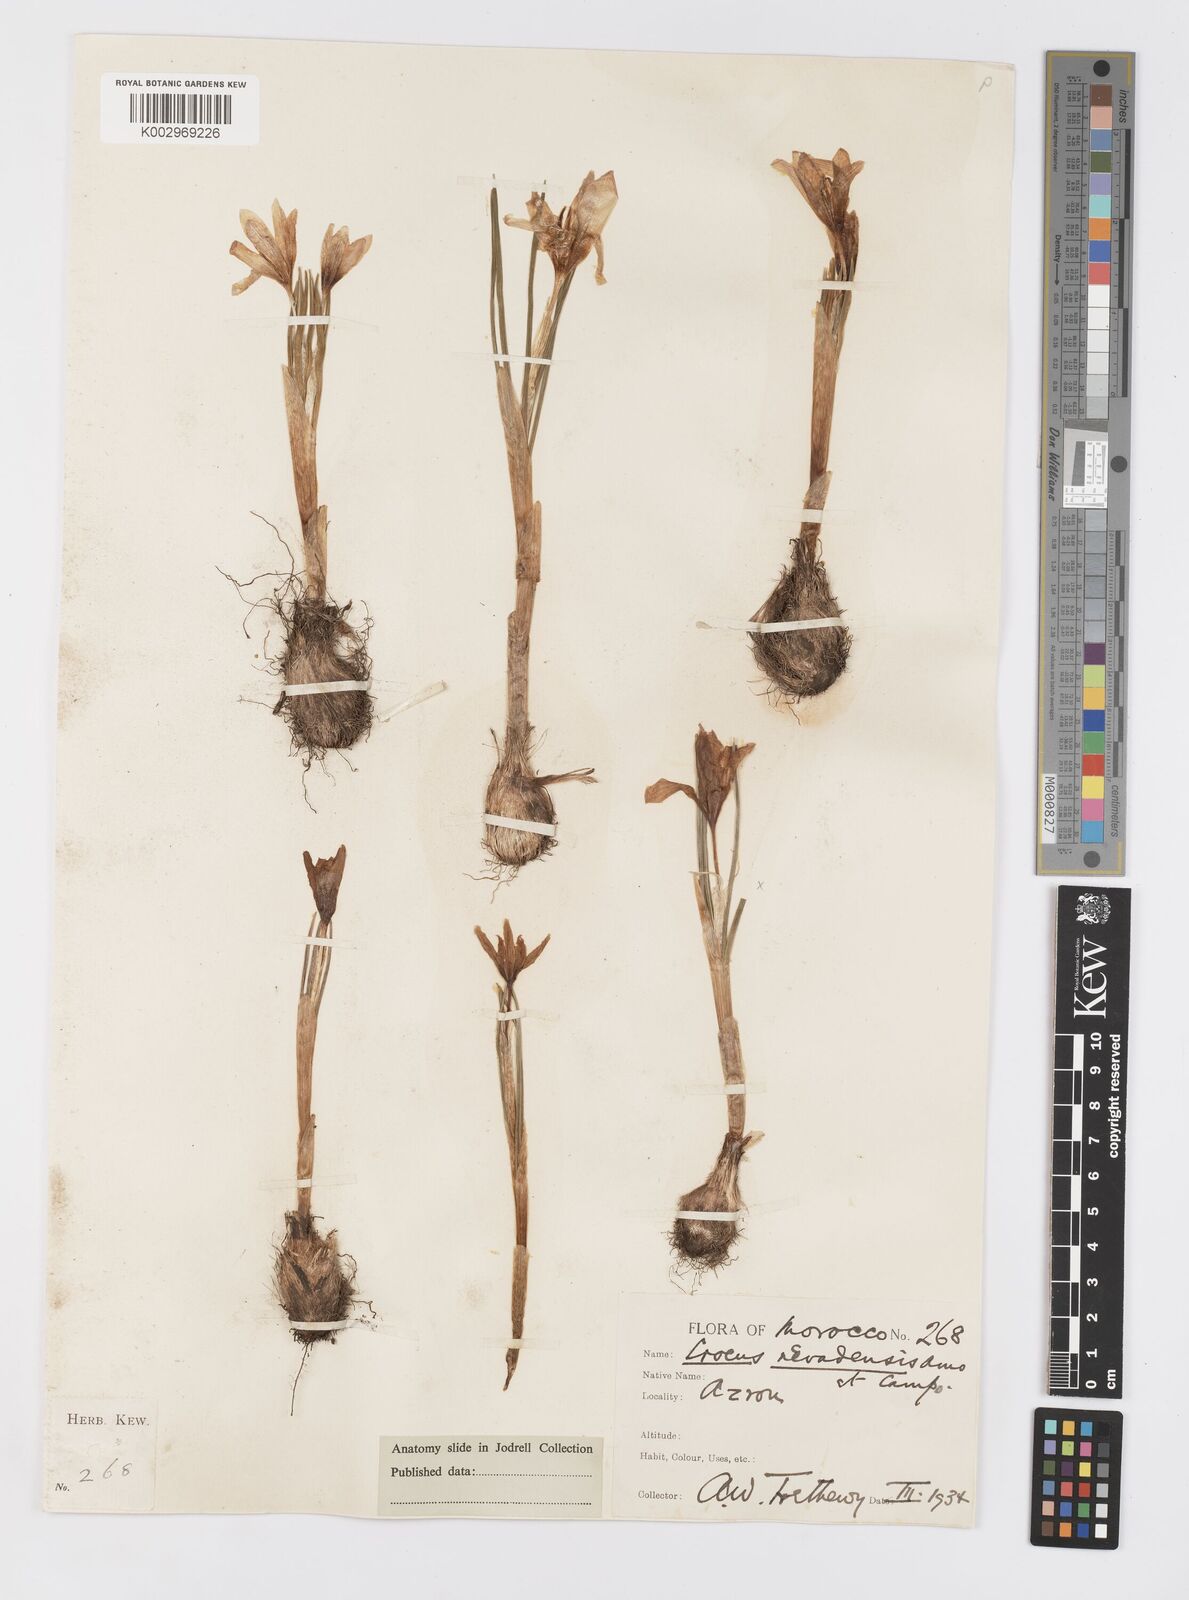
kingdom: Plantae
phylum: Tracheophyta
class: Liliopsida
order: Asparagales
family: Iridaceae
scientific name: Iridaceae
